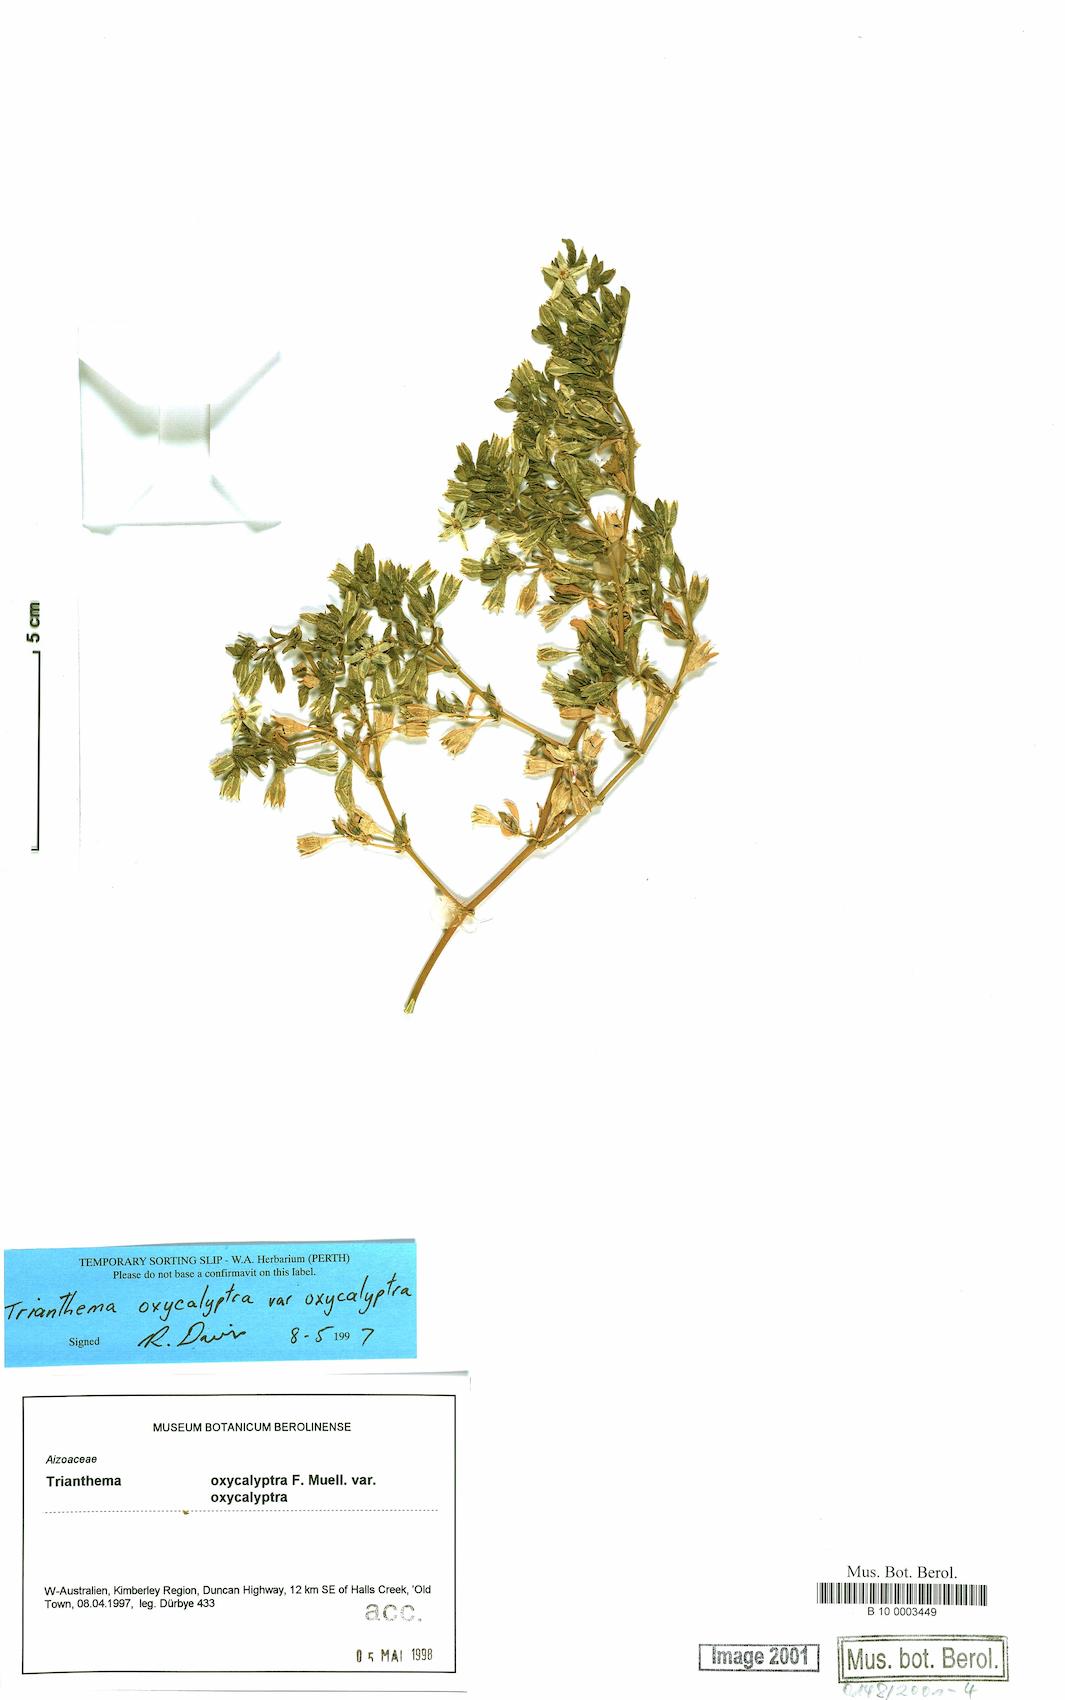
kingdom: Plantae
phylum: Tracheophyta
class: Magnoliopsida
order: Caryophyllales
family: Aizoaceae
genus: Trianthema
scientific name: Trianthema oxycalyptrum
